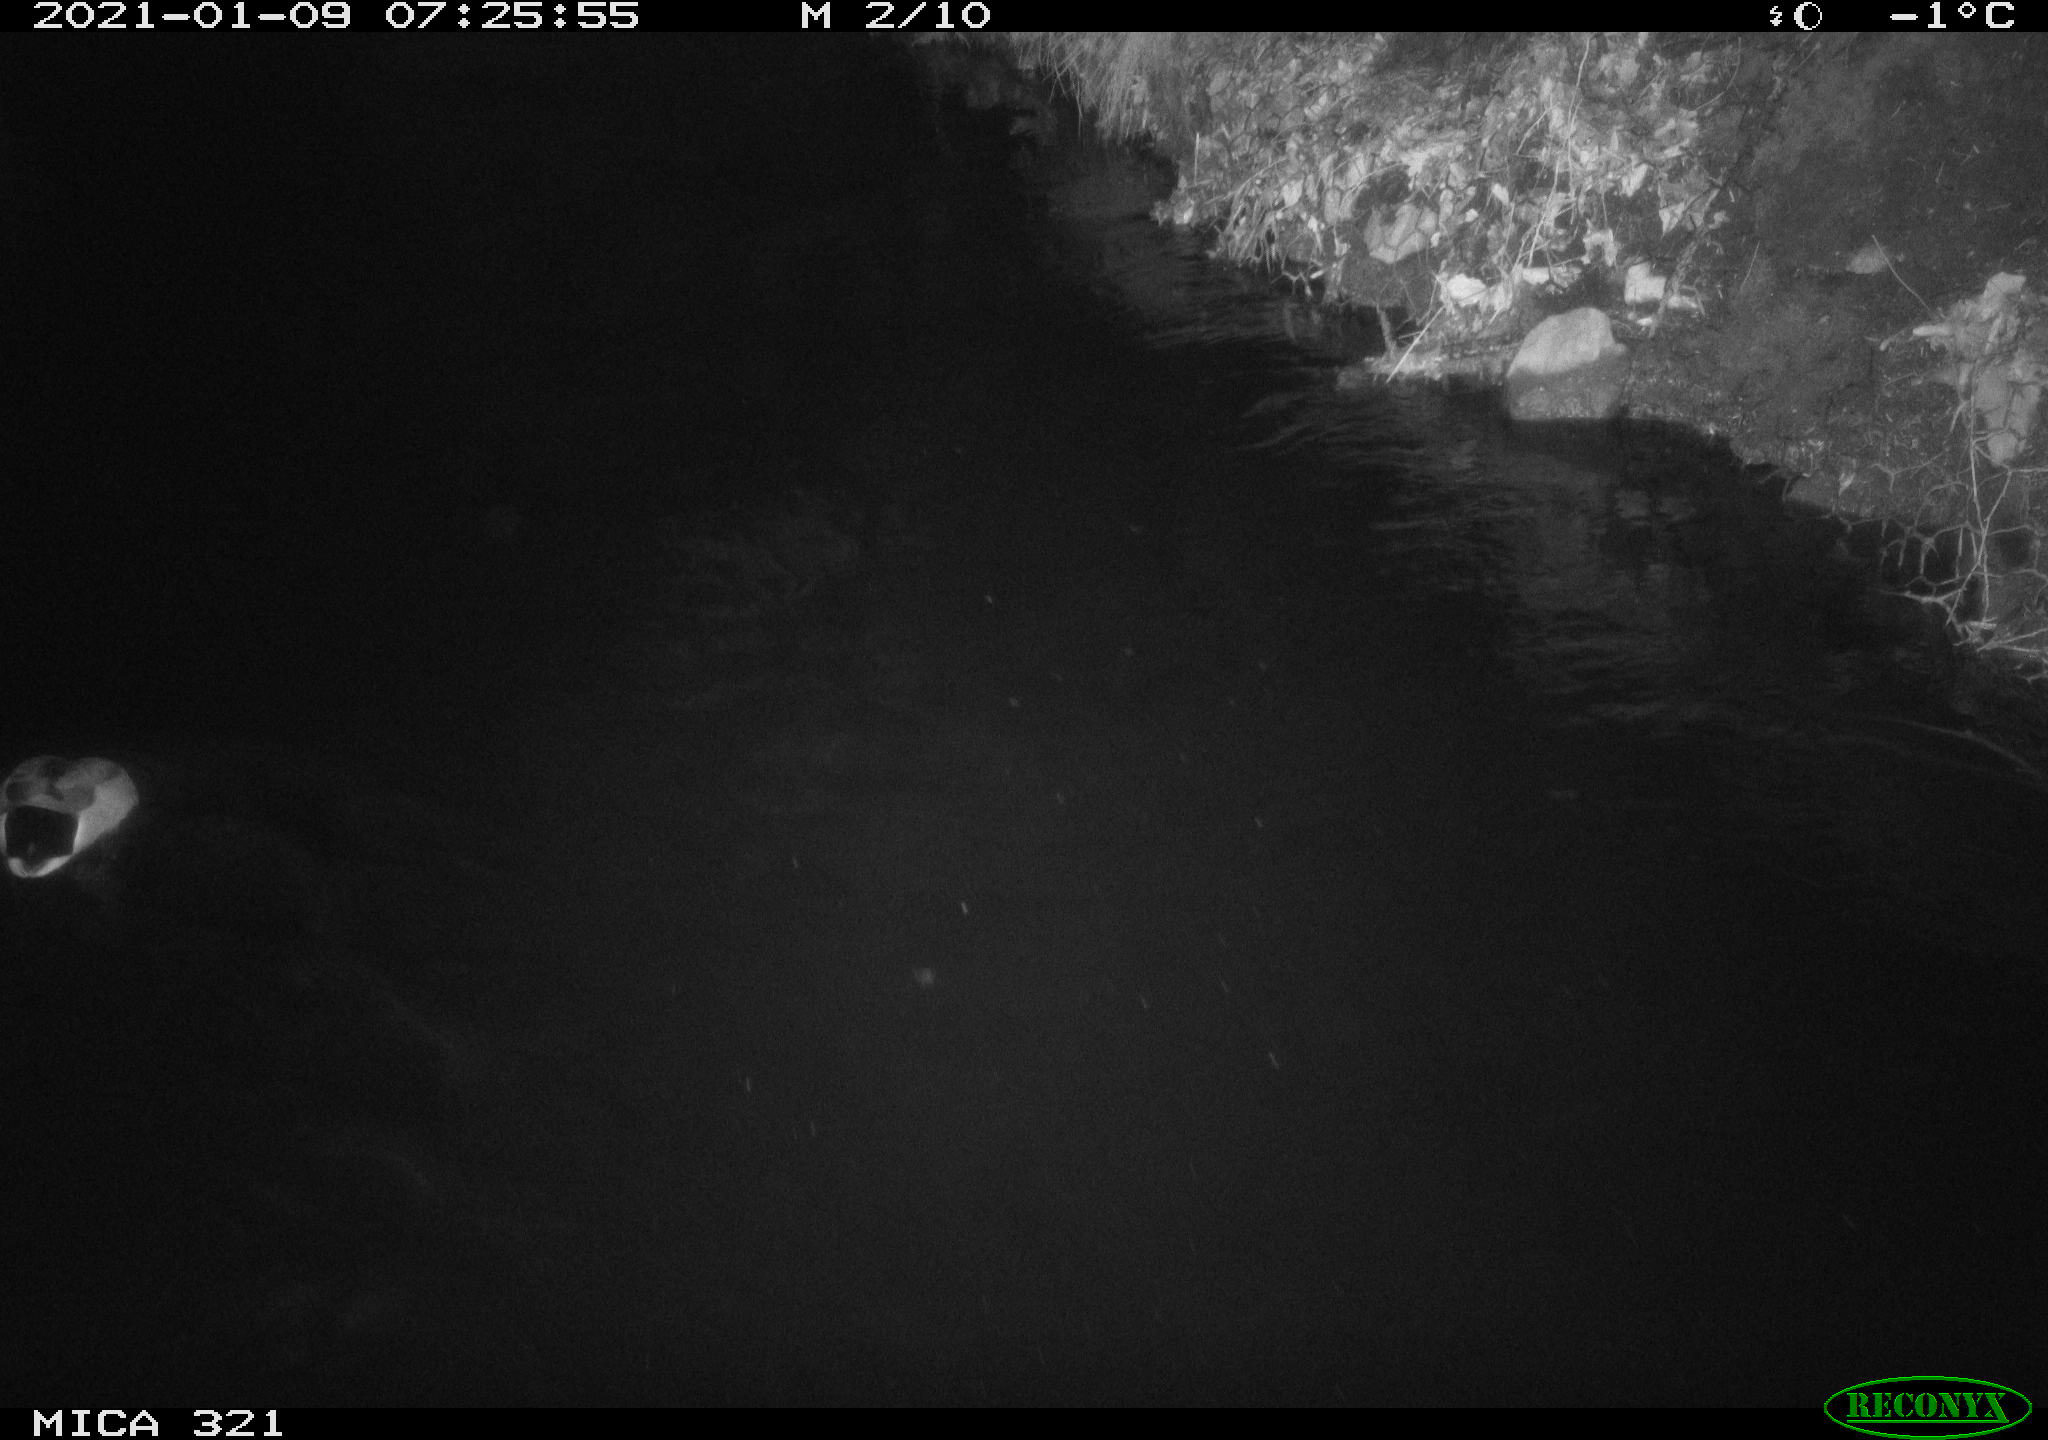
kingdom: Animalia
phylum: Chordata
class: Aves
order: Anseriformes
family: Anatidae
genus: Anas
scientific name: Anas platyrhynchos
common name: Mallard
